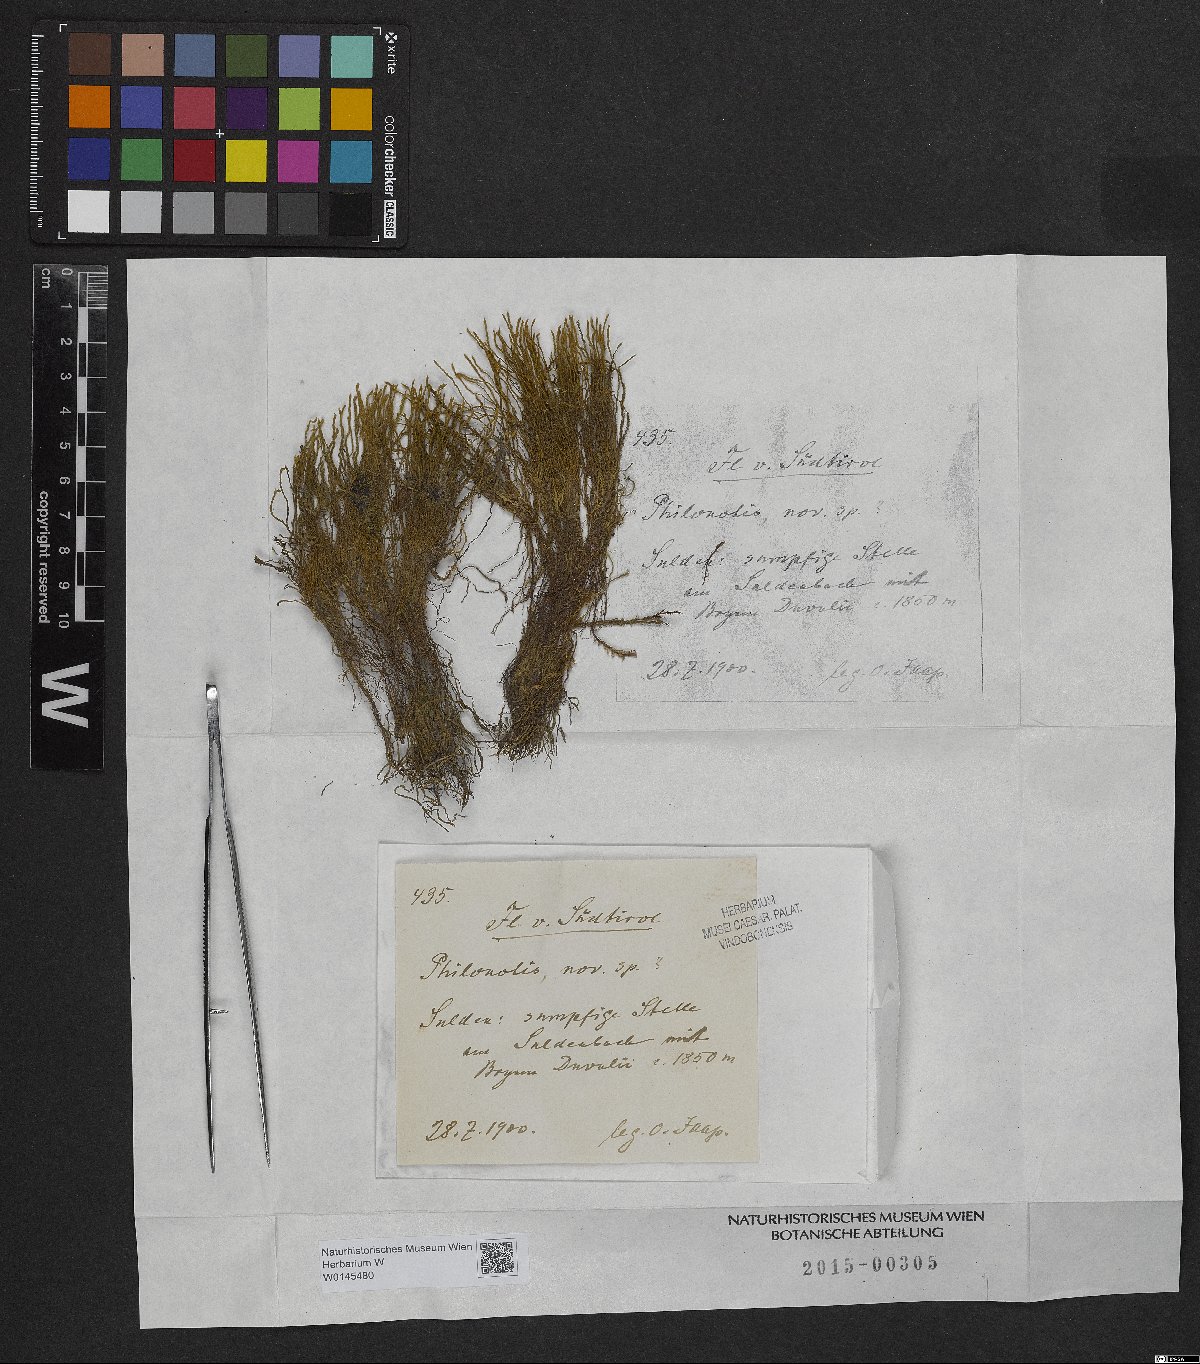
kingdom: Plantae
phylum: Bryophyta
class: Bryopsida
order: Bartramiales
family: Bartramiaceae
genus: Philonotis
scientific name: Philonotis
